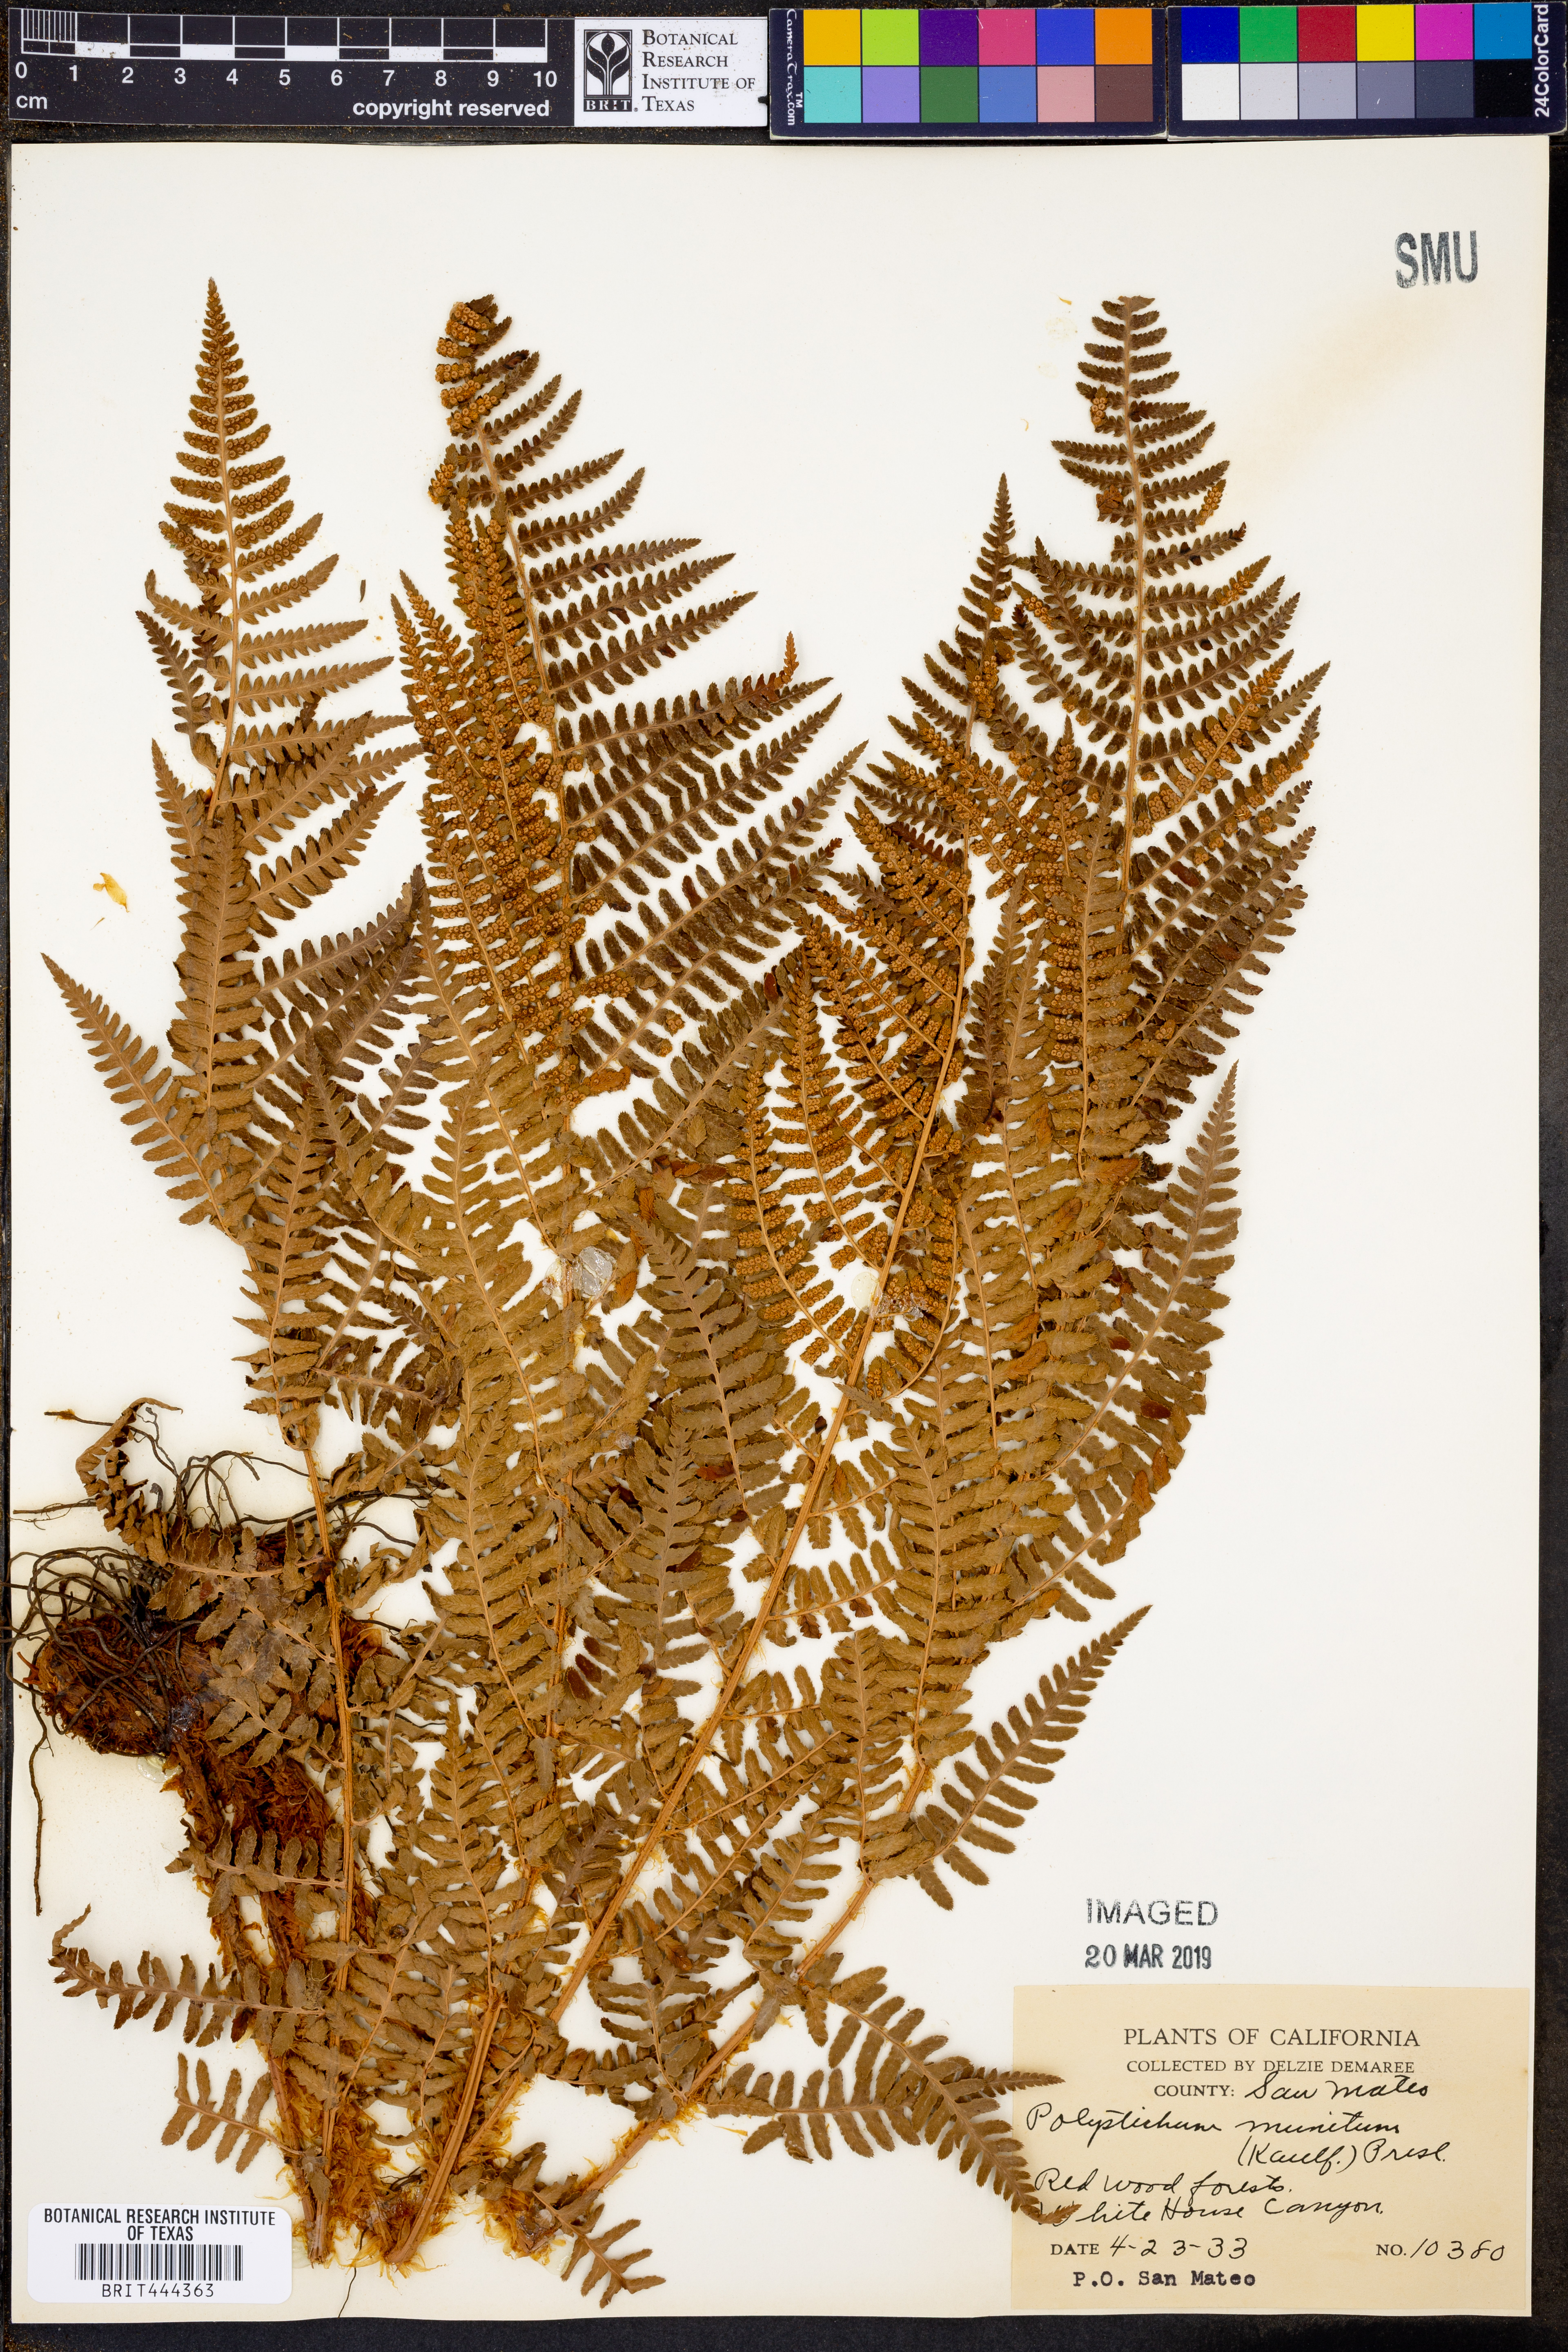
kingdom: Plantae
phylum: Tracheophyta
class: Polypodiopsida
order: Polypodiales
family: Dryopteridaceae
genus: Polystichum
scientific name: Polystichum munitum
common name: Western sword-fern
